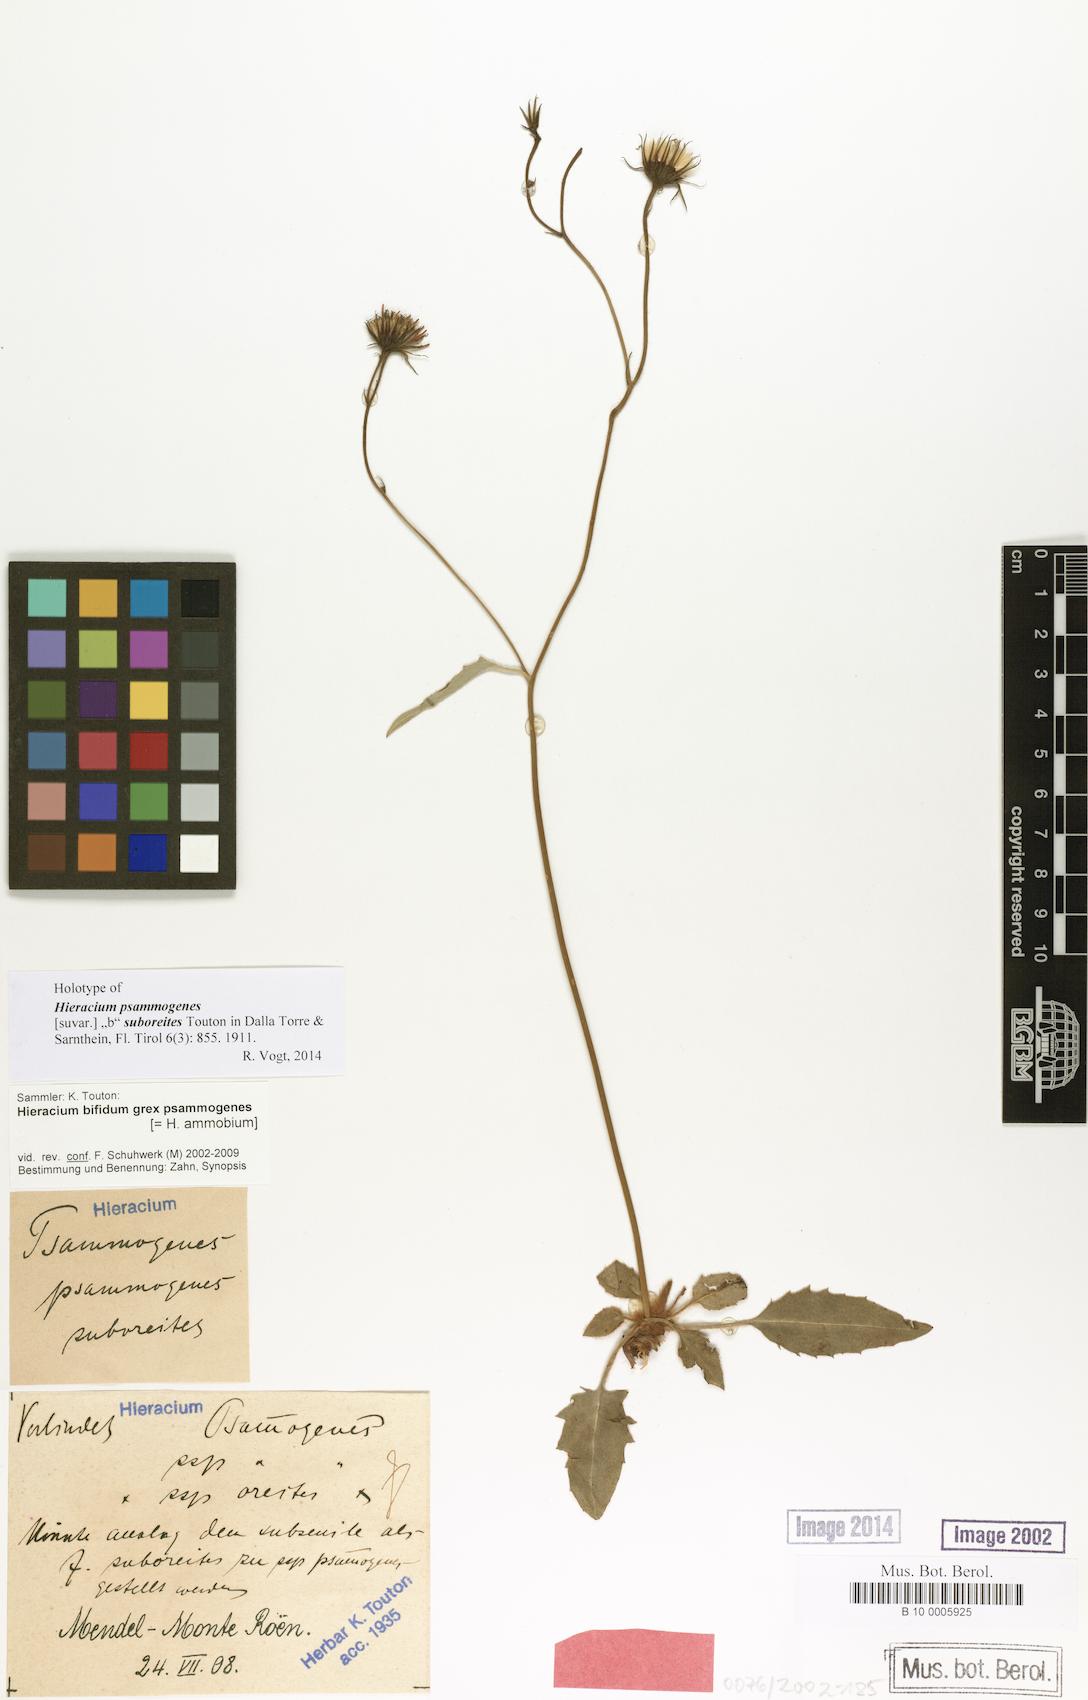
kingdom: Plantae
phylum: Tracheophyta
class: Magnoliopsida
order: Asterales
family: Asteraceae
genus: Hieracium
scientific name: Hieracium psammogenes
